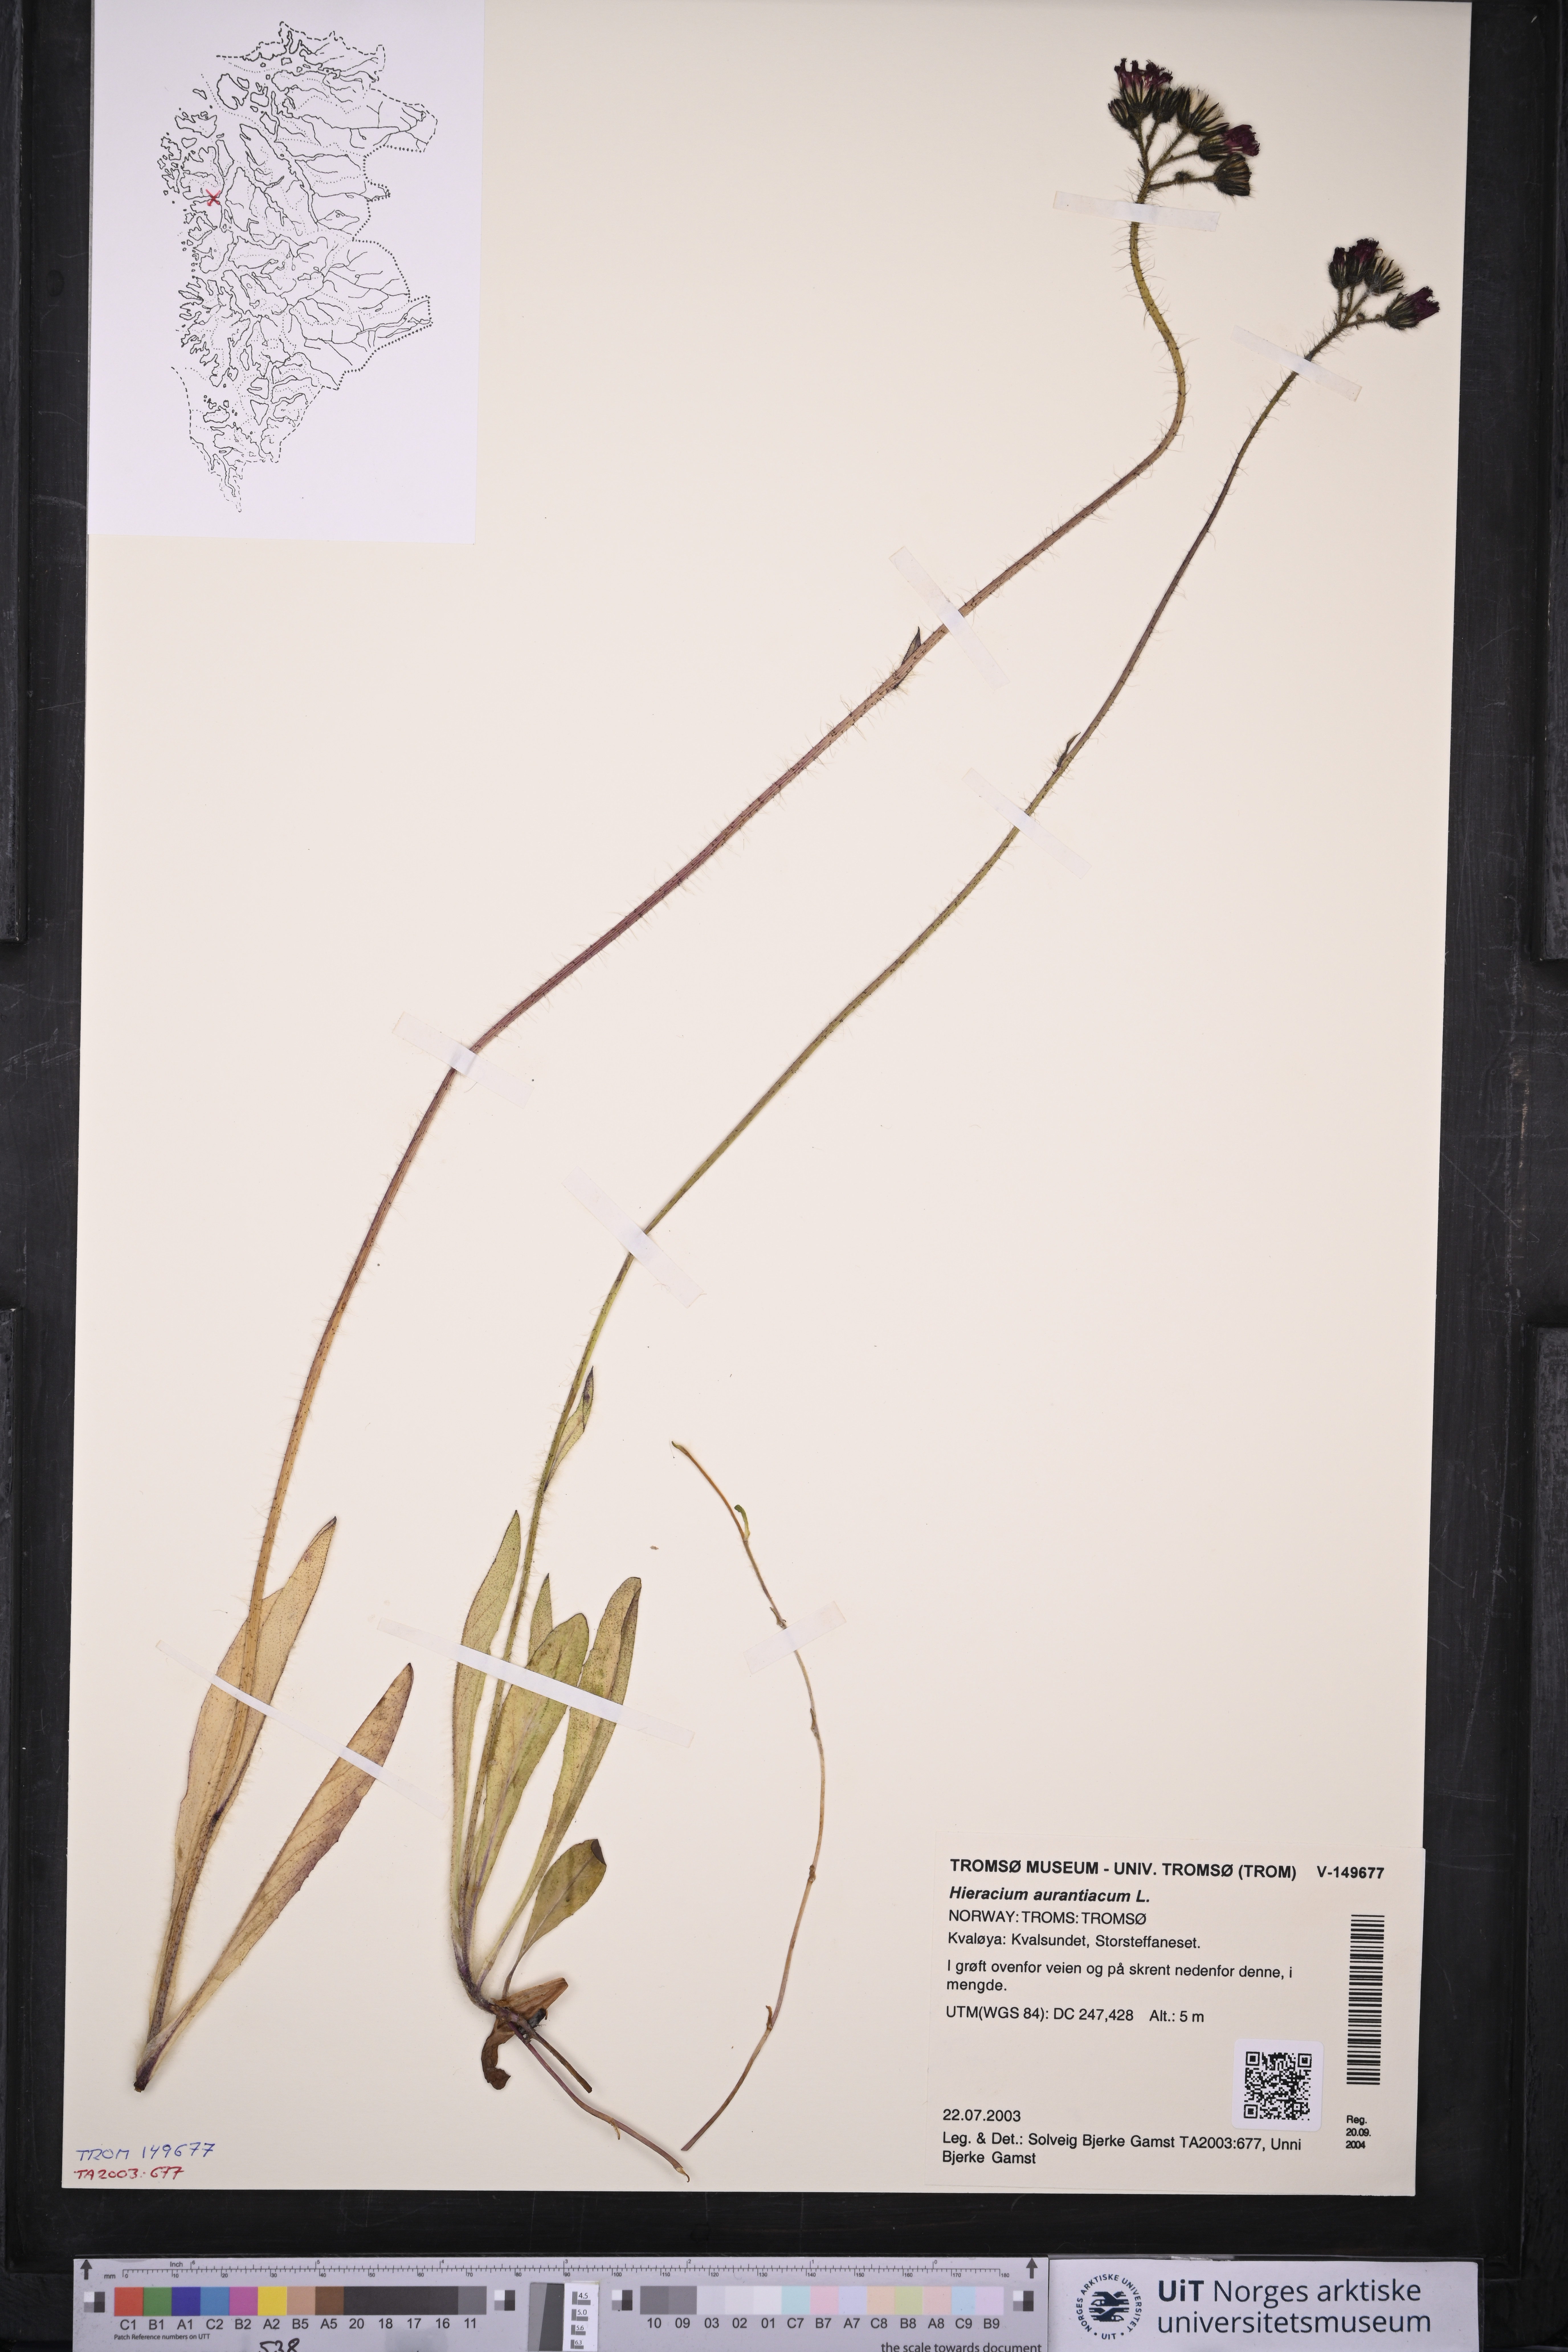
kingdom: Plantae
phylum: Tracheophyta
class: Magnoliopsida
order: Asterales
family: Asteraceae
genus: Pilosella
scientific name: Pilosella aurantiaca
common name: Fox-and-cubs
